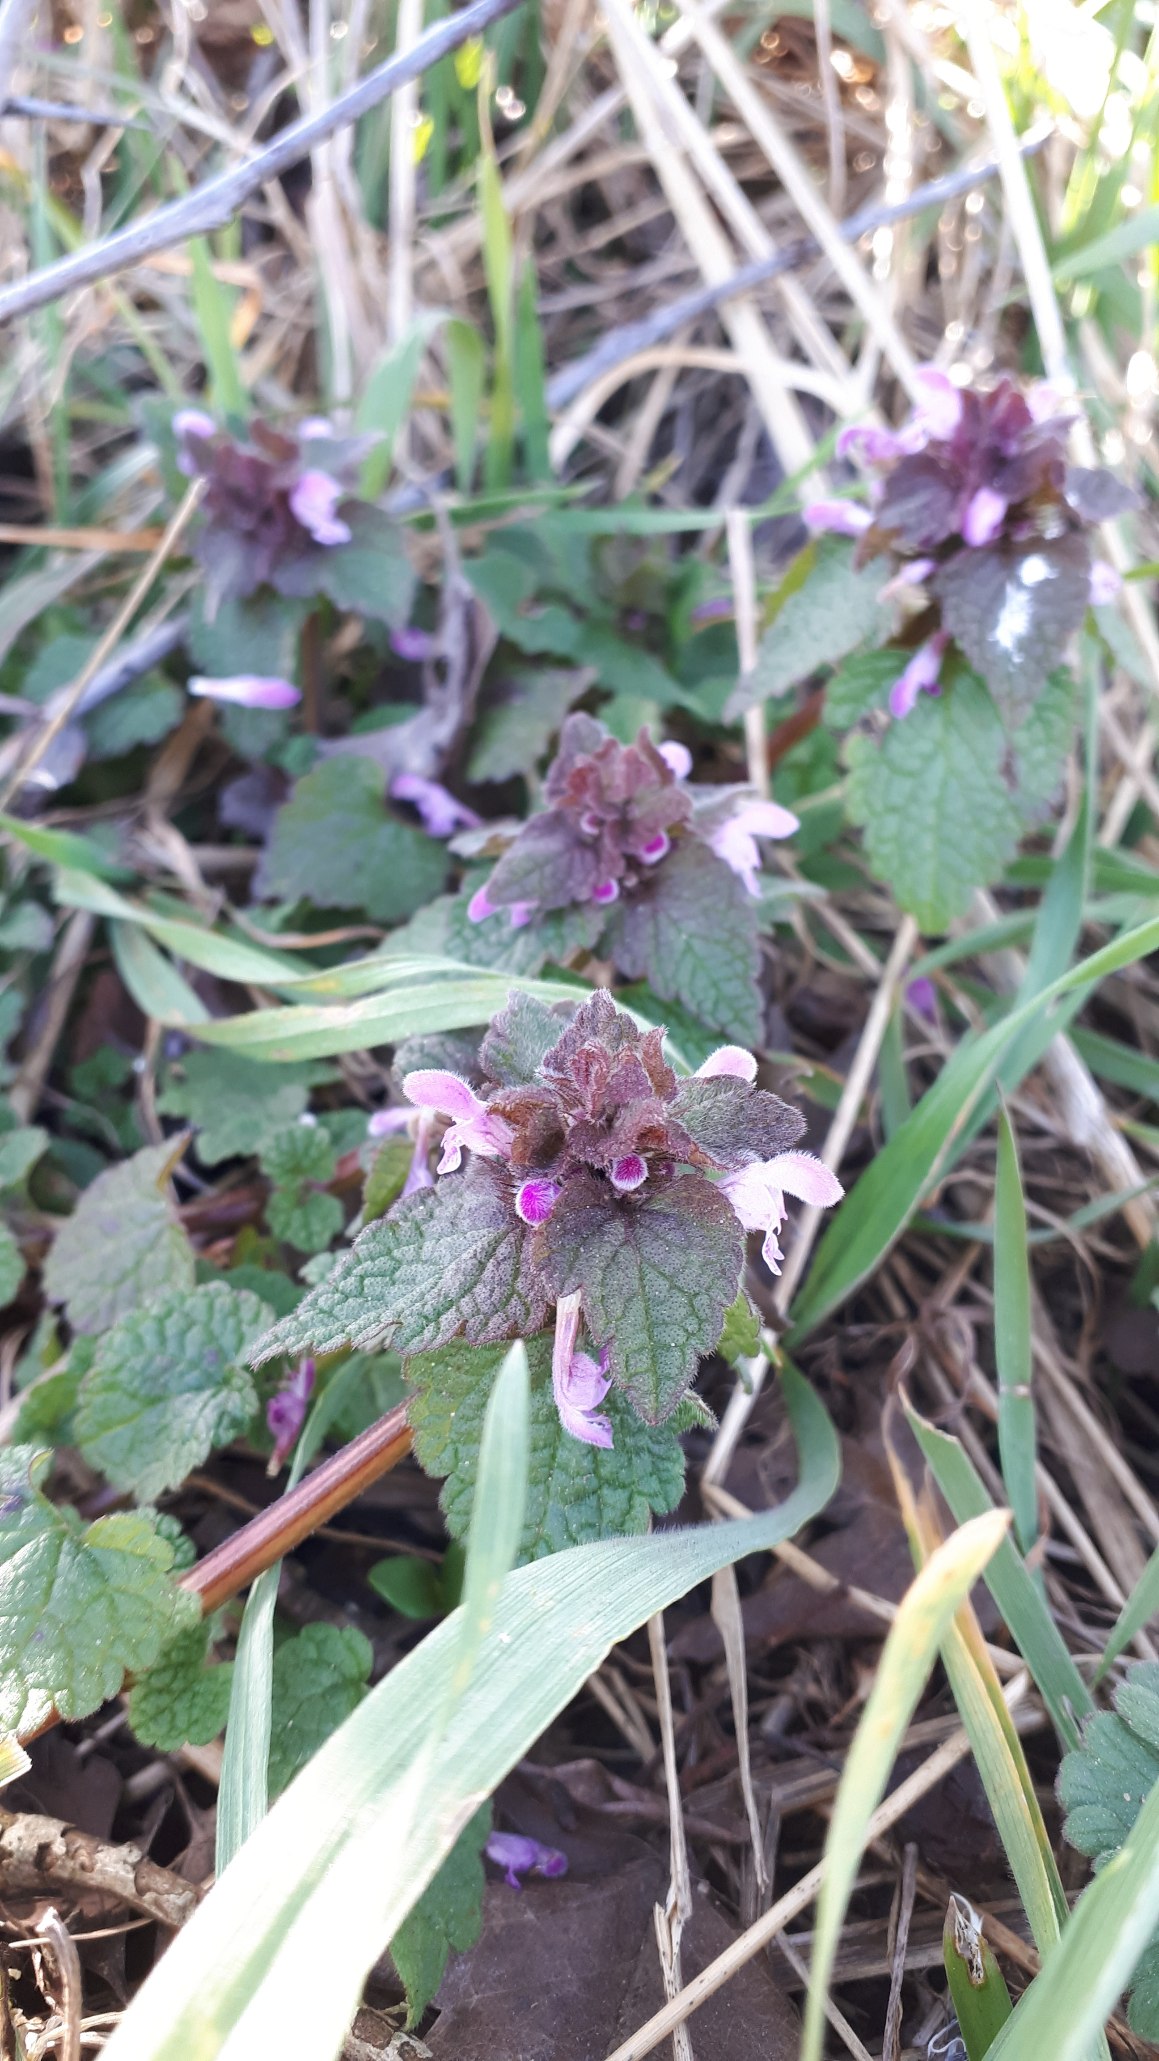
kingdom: Plantae
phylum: Tracheophyta
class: Magnoliopsida
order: Lamiales
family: Lamiaceae
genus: Lamium
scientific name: Lamium purpureum
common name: Rød tvetand
